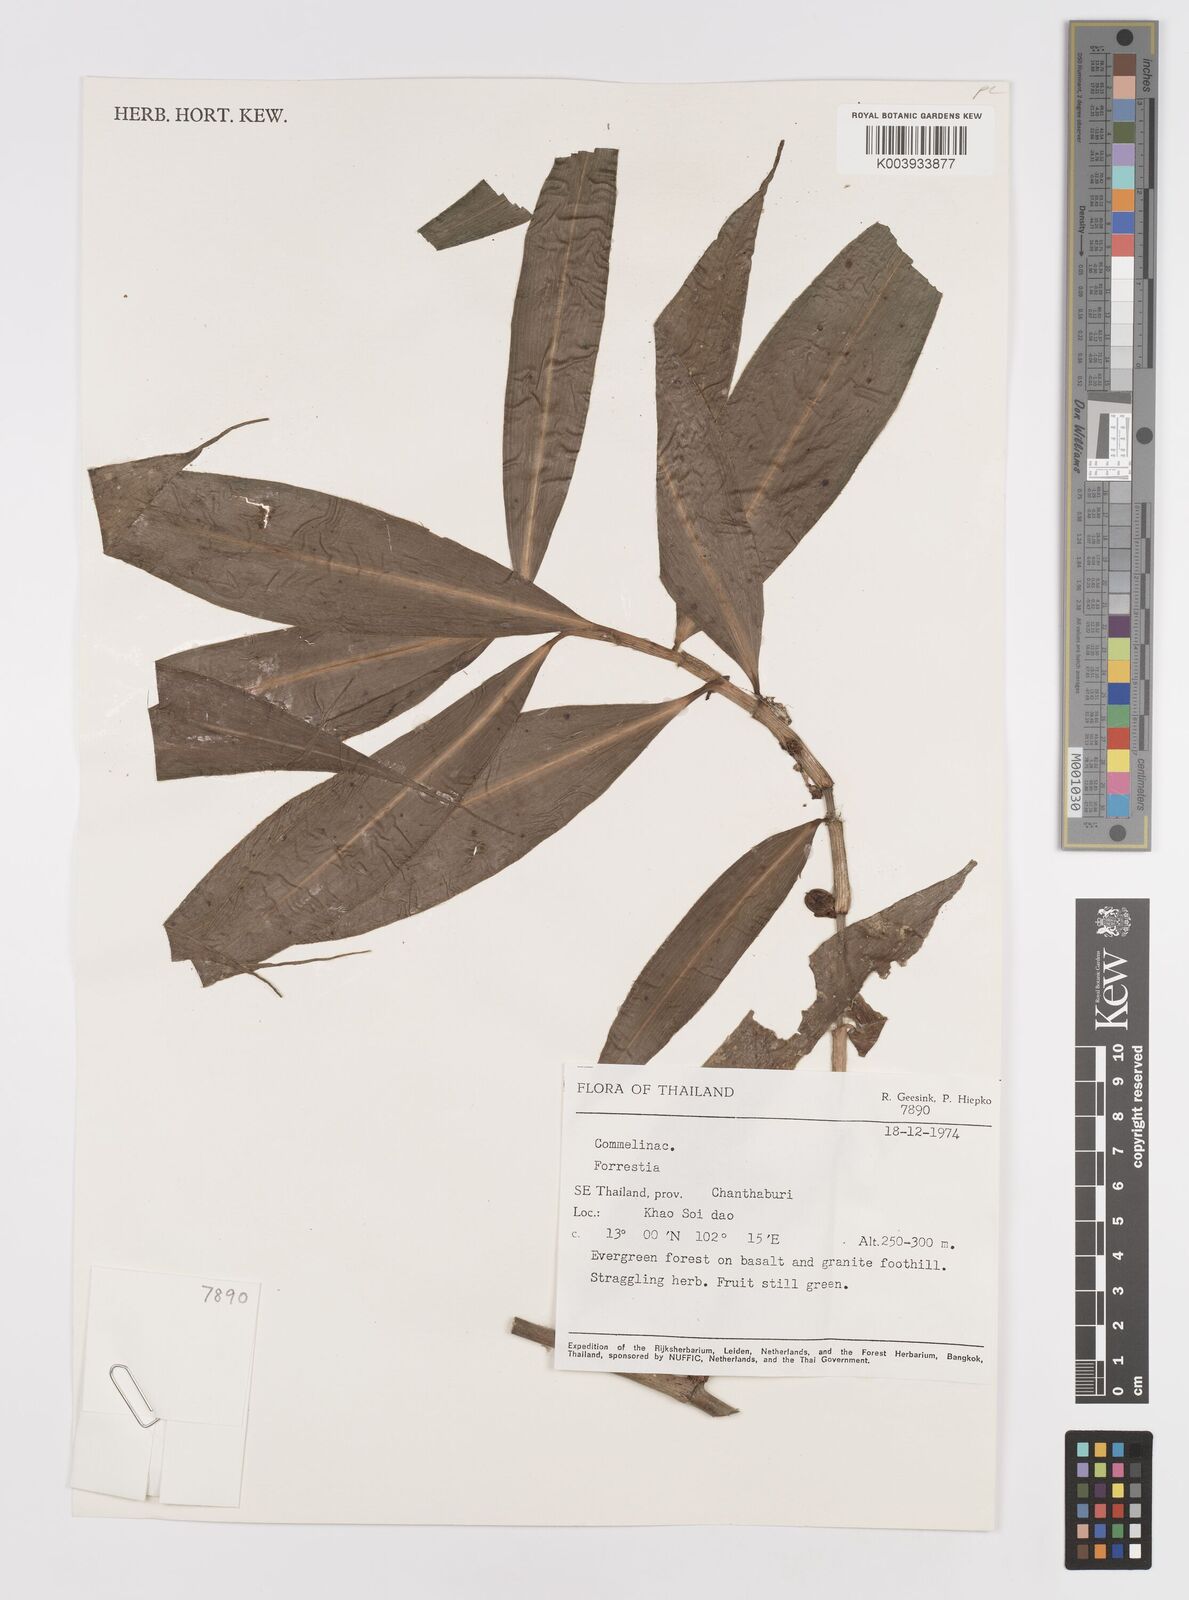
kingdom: Plantae
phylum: Tracheophyta
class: Liliopsida
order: Commelinales
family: Commelinaceae
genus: Amischotolype
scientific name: Amischotolype
